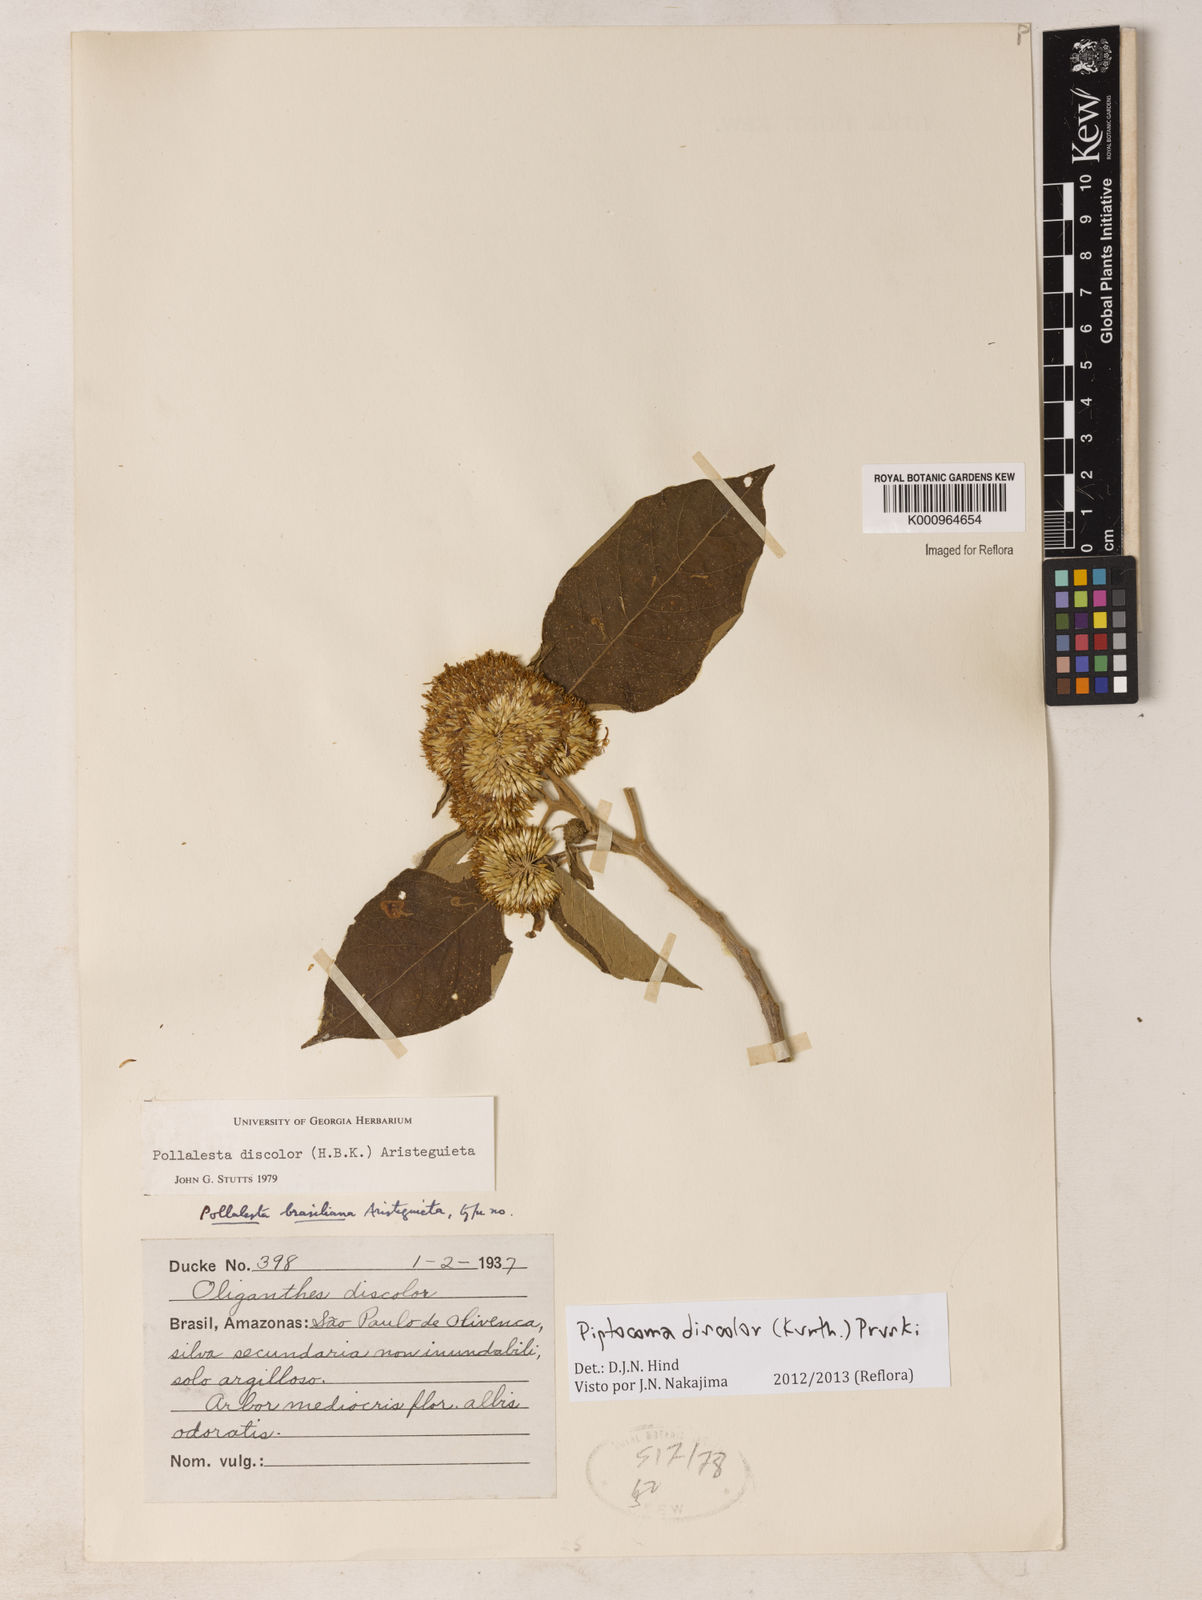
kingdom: Plantae
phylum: Tracheophyta
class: Magnoliopsida
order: Asterales
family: Asteraceae
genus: Piptocoma
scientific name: Piptocoma discolor
